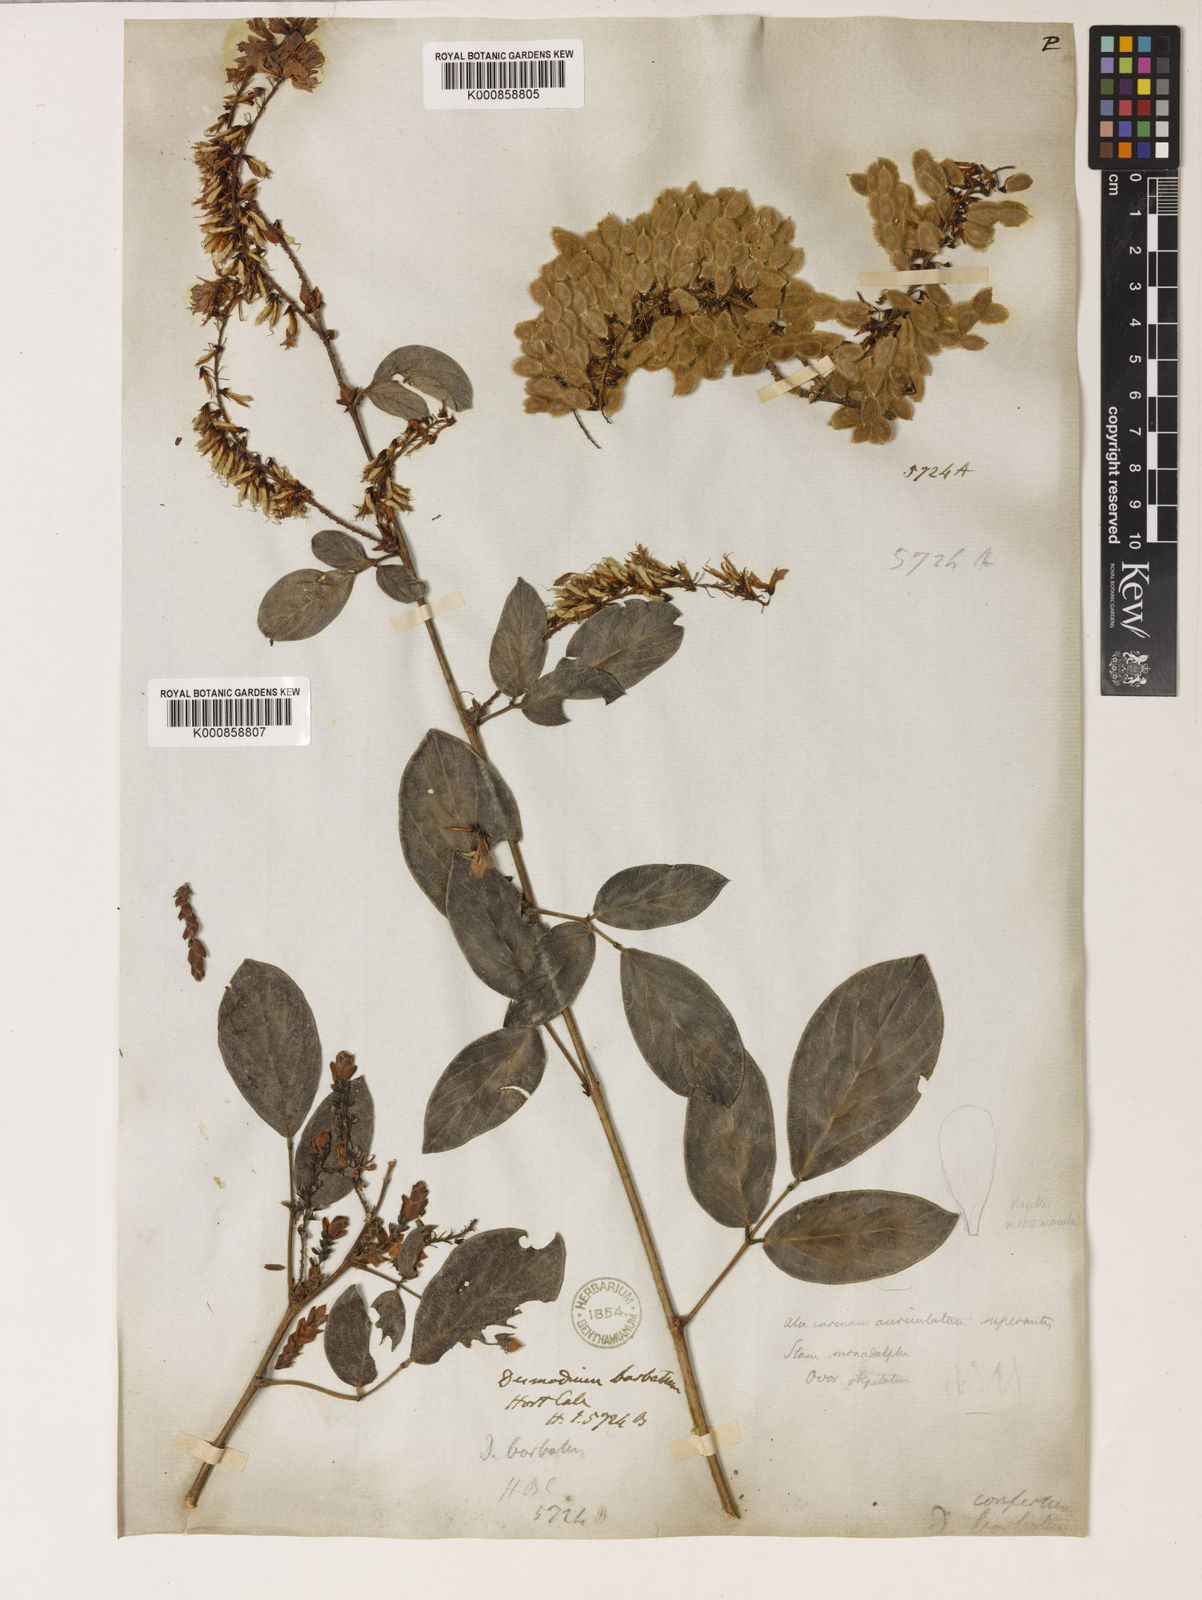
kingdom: Plantae
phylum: Tracheophyta
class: Magnoliopsida
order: Fabales
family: Fabaceae
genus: Ototropis
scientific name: Ototropis conferta
